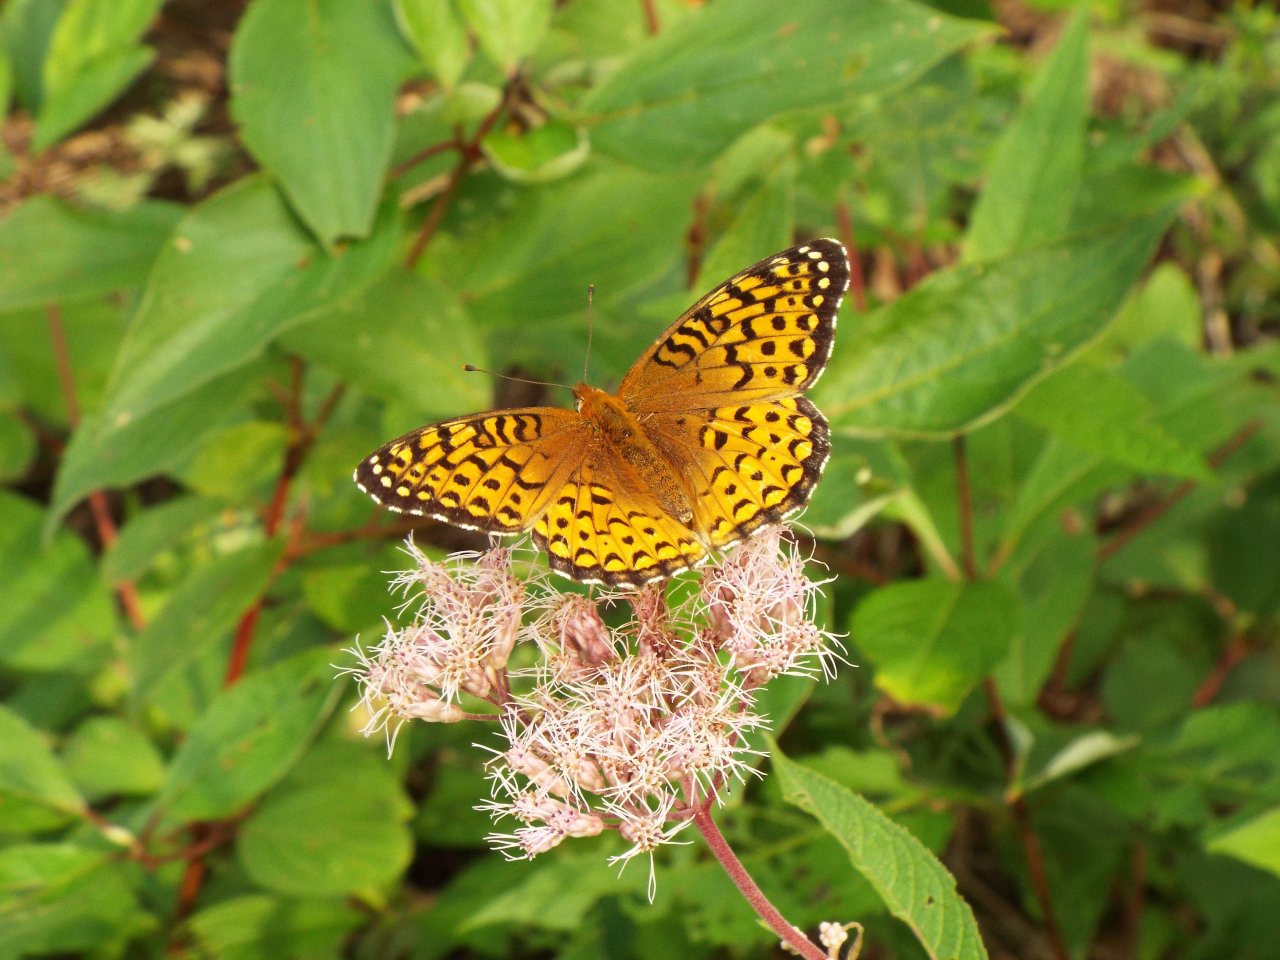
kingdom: Animalia
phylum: Arthropoda
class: Insecta
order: Lepidoptera
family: Nymphalidae
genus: Speyeria
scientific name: Speyeria atlantis
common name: Atlantis Fritillary
